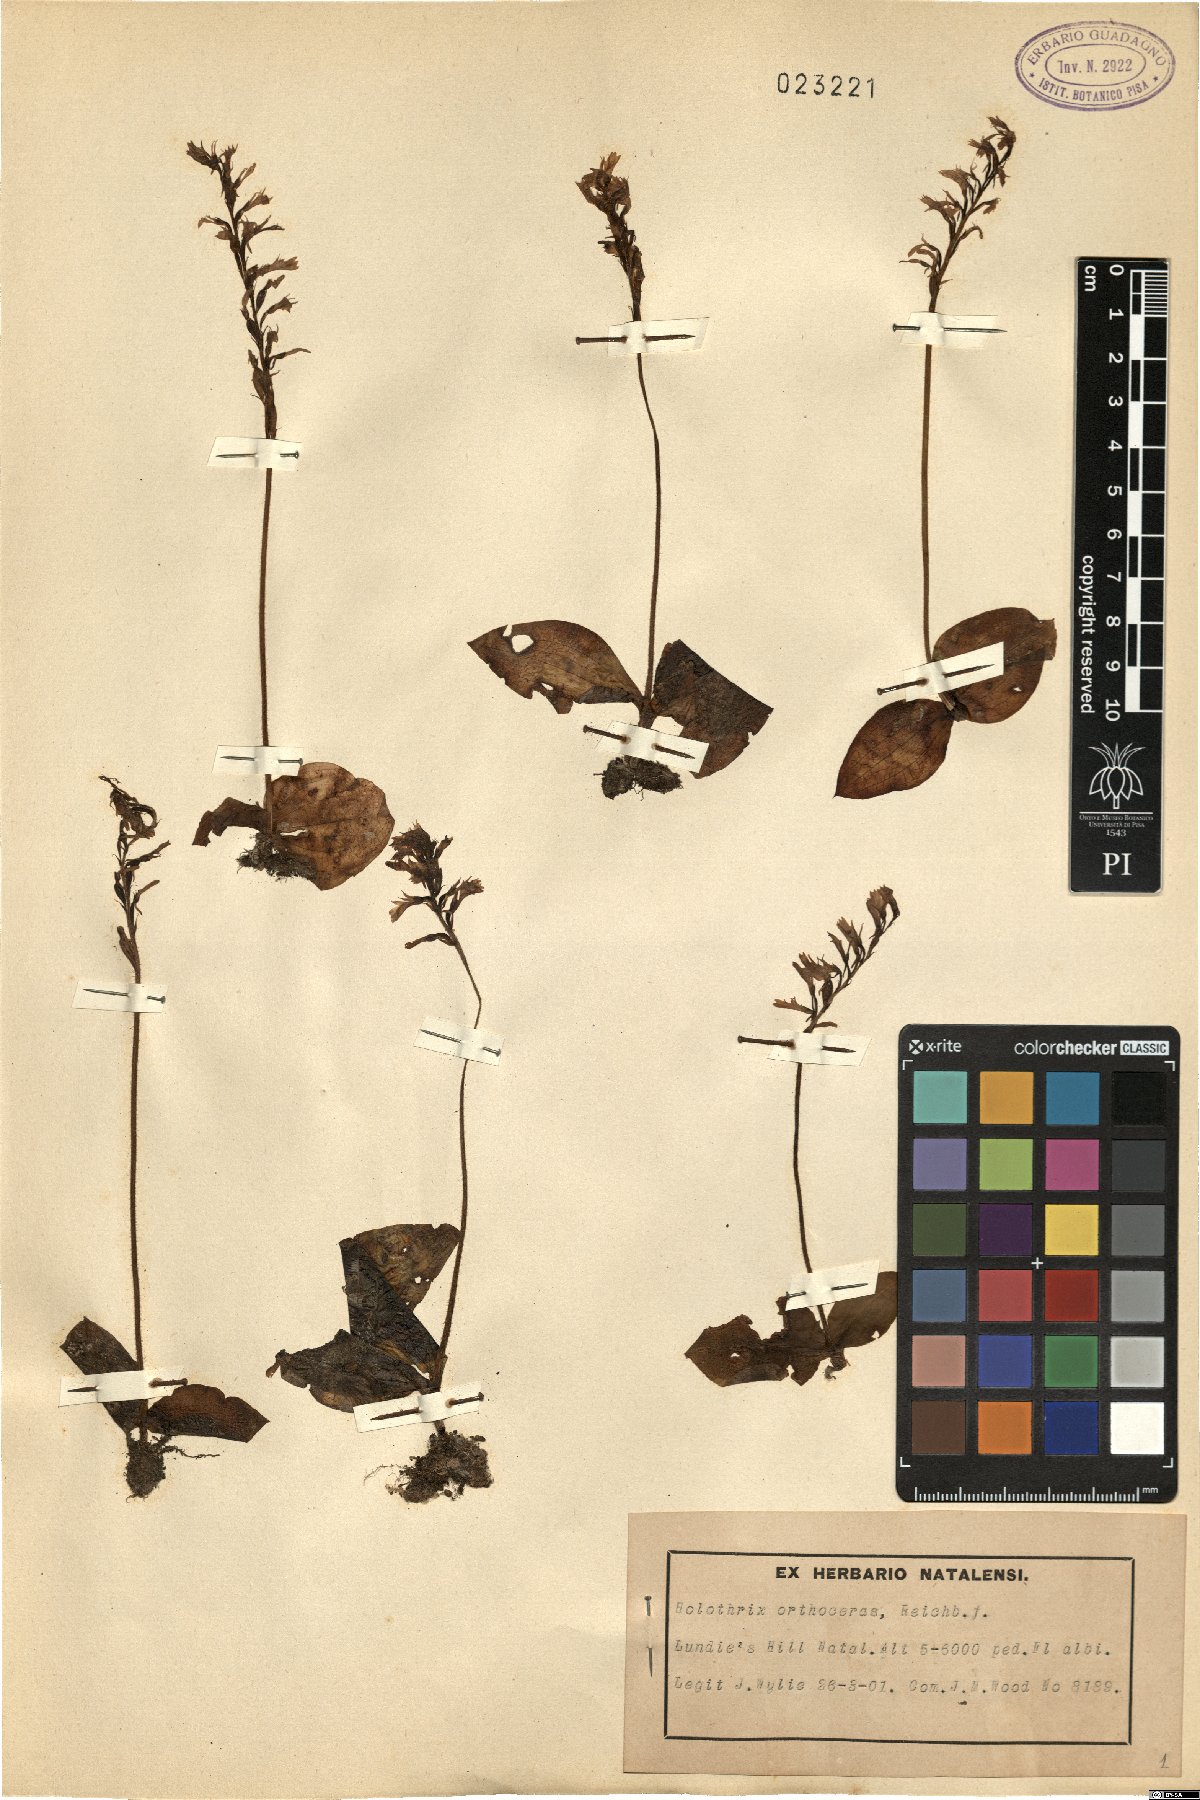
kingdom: Plantae
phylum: Tracheophyta
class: Liliopsida
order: Asparagales
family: Orchidaceae
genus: Holothrix
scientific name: Holothrix orthoceras
